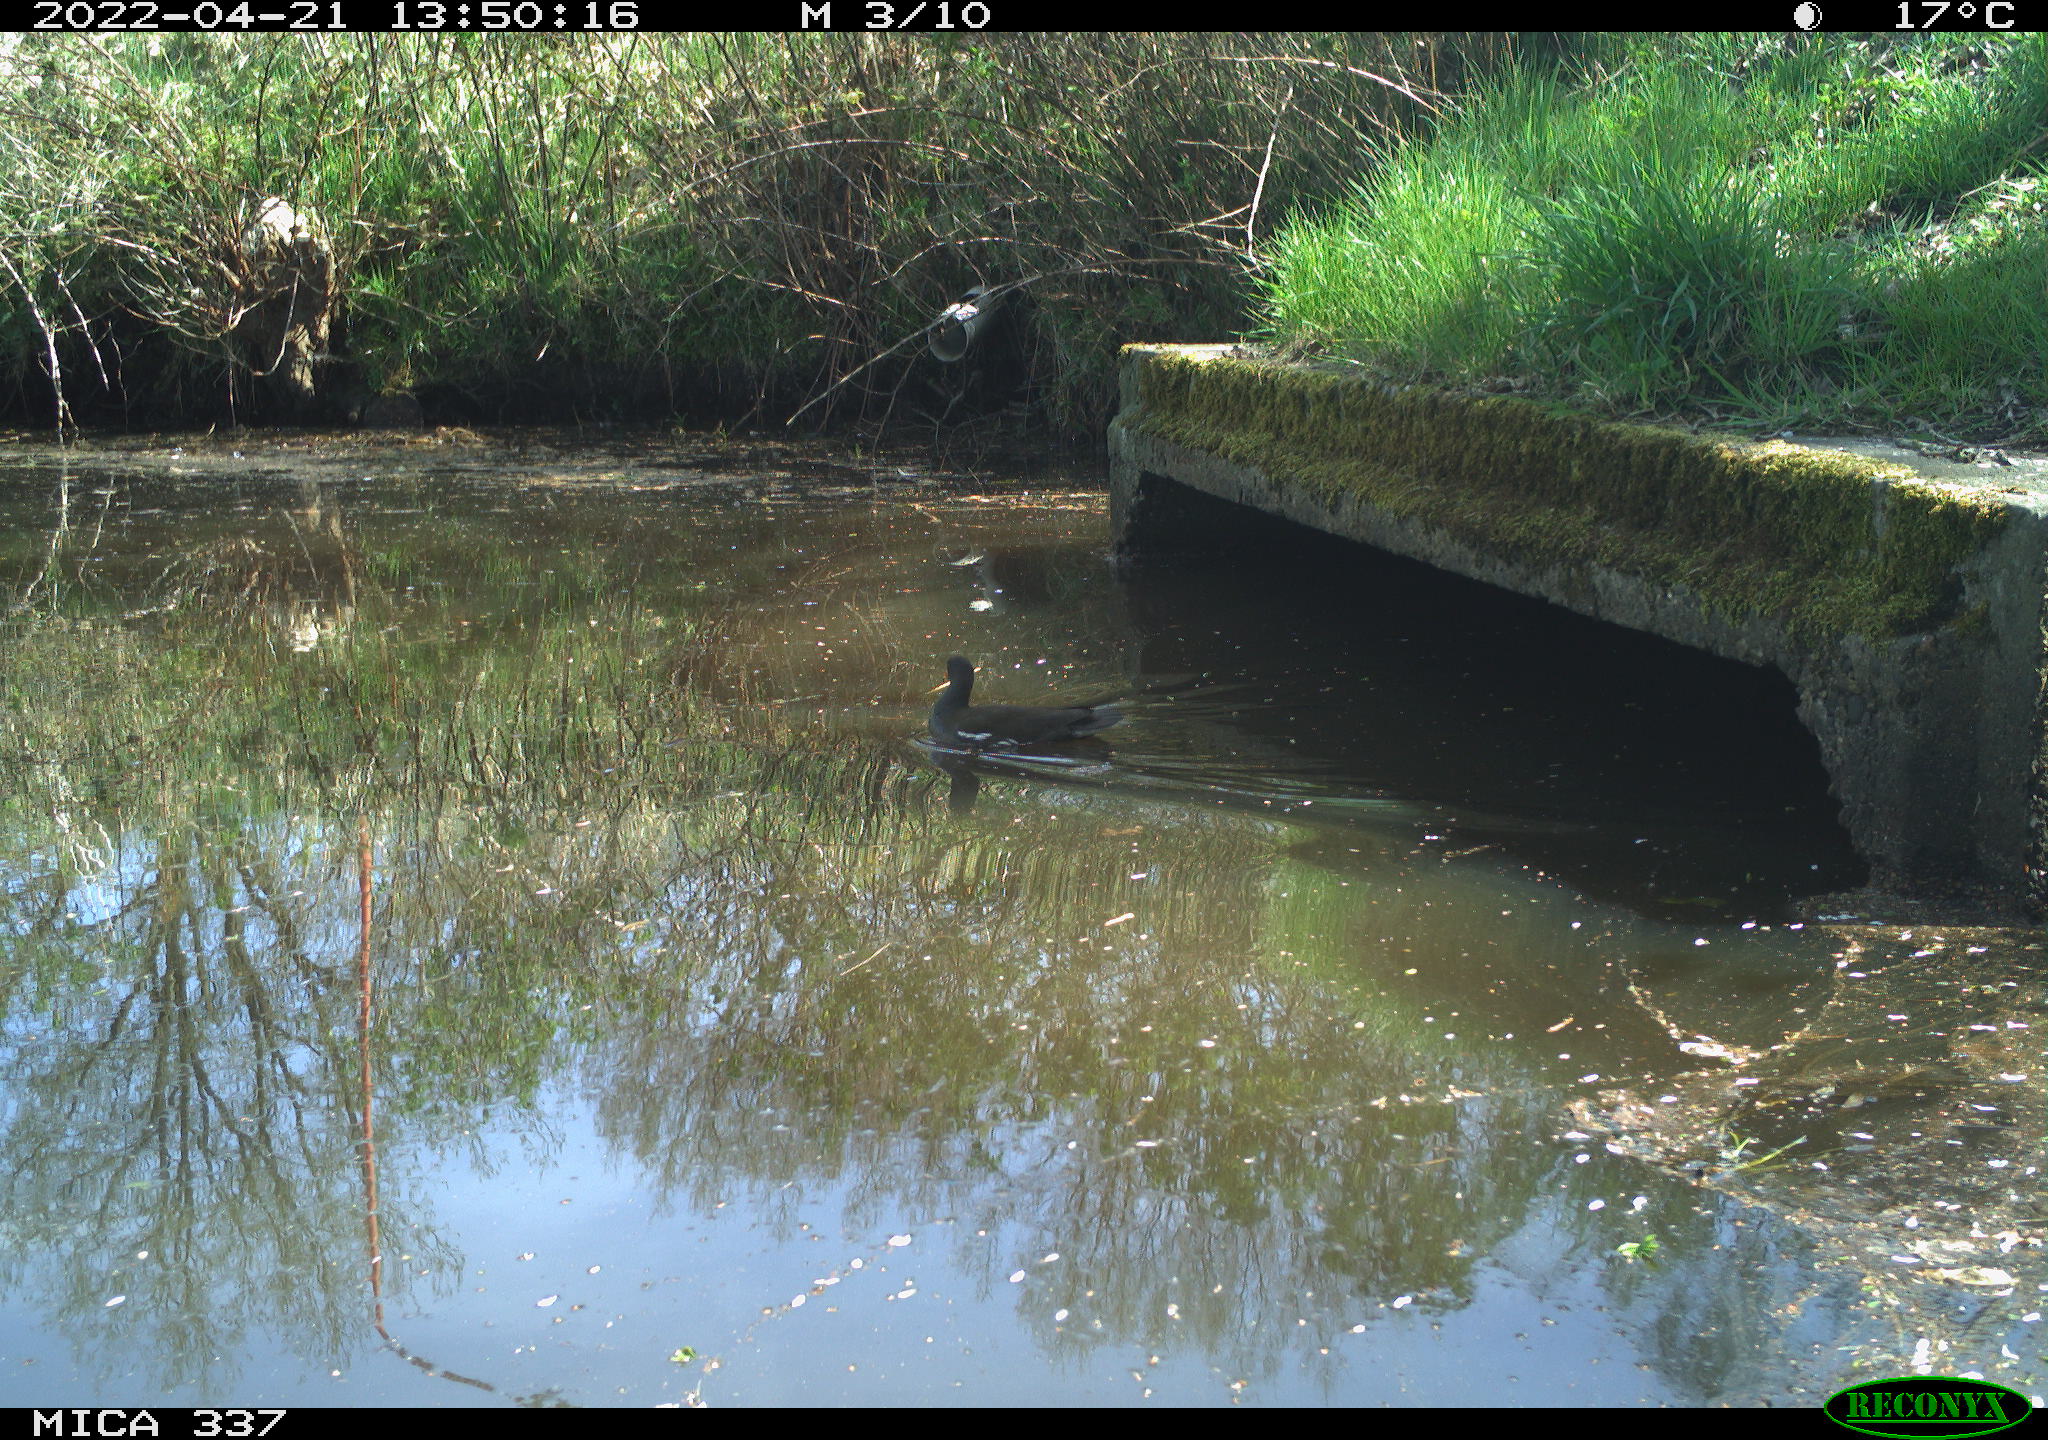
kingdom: Animalia
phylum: Chordata
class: Aves
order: Gruiformes
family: Rallidae
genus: Gallinula
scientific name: Gallinula chloropus
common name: Common moorhen
